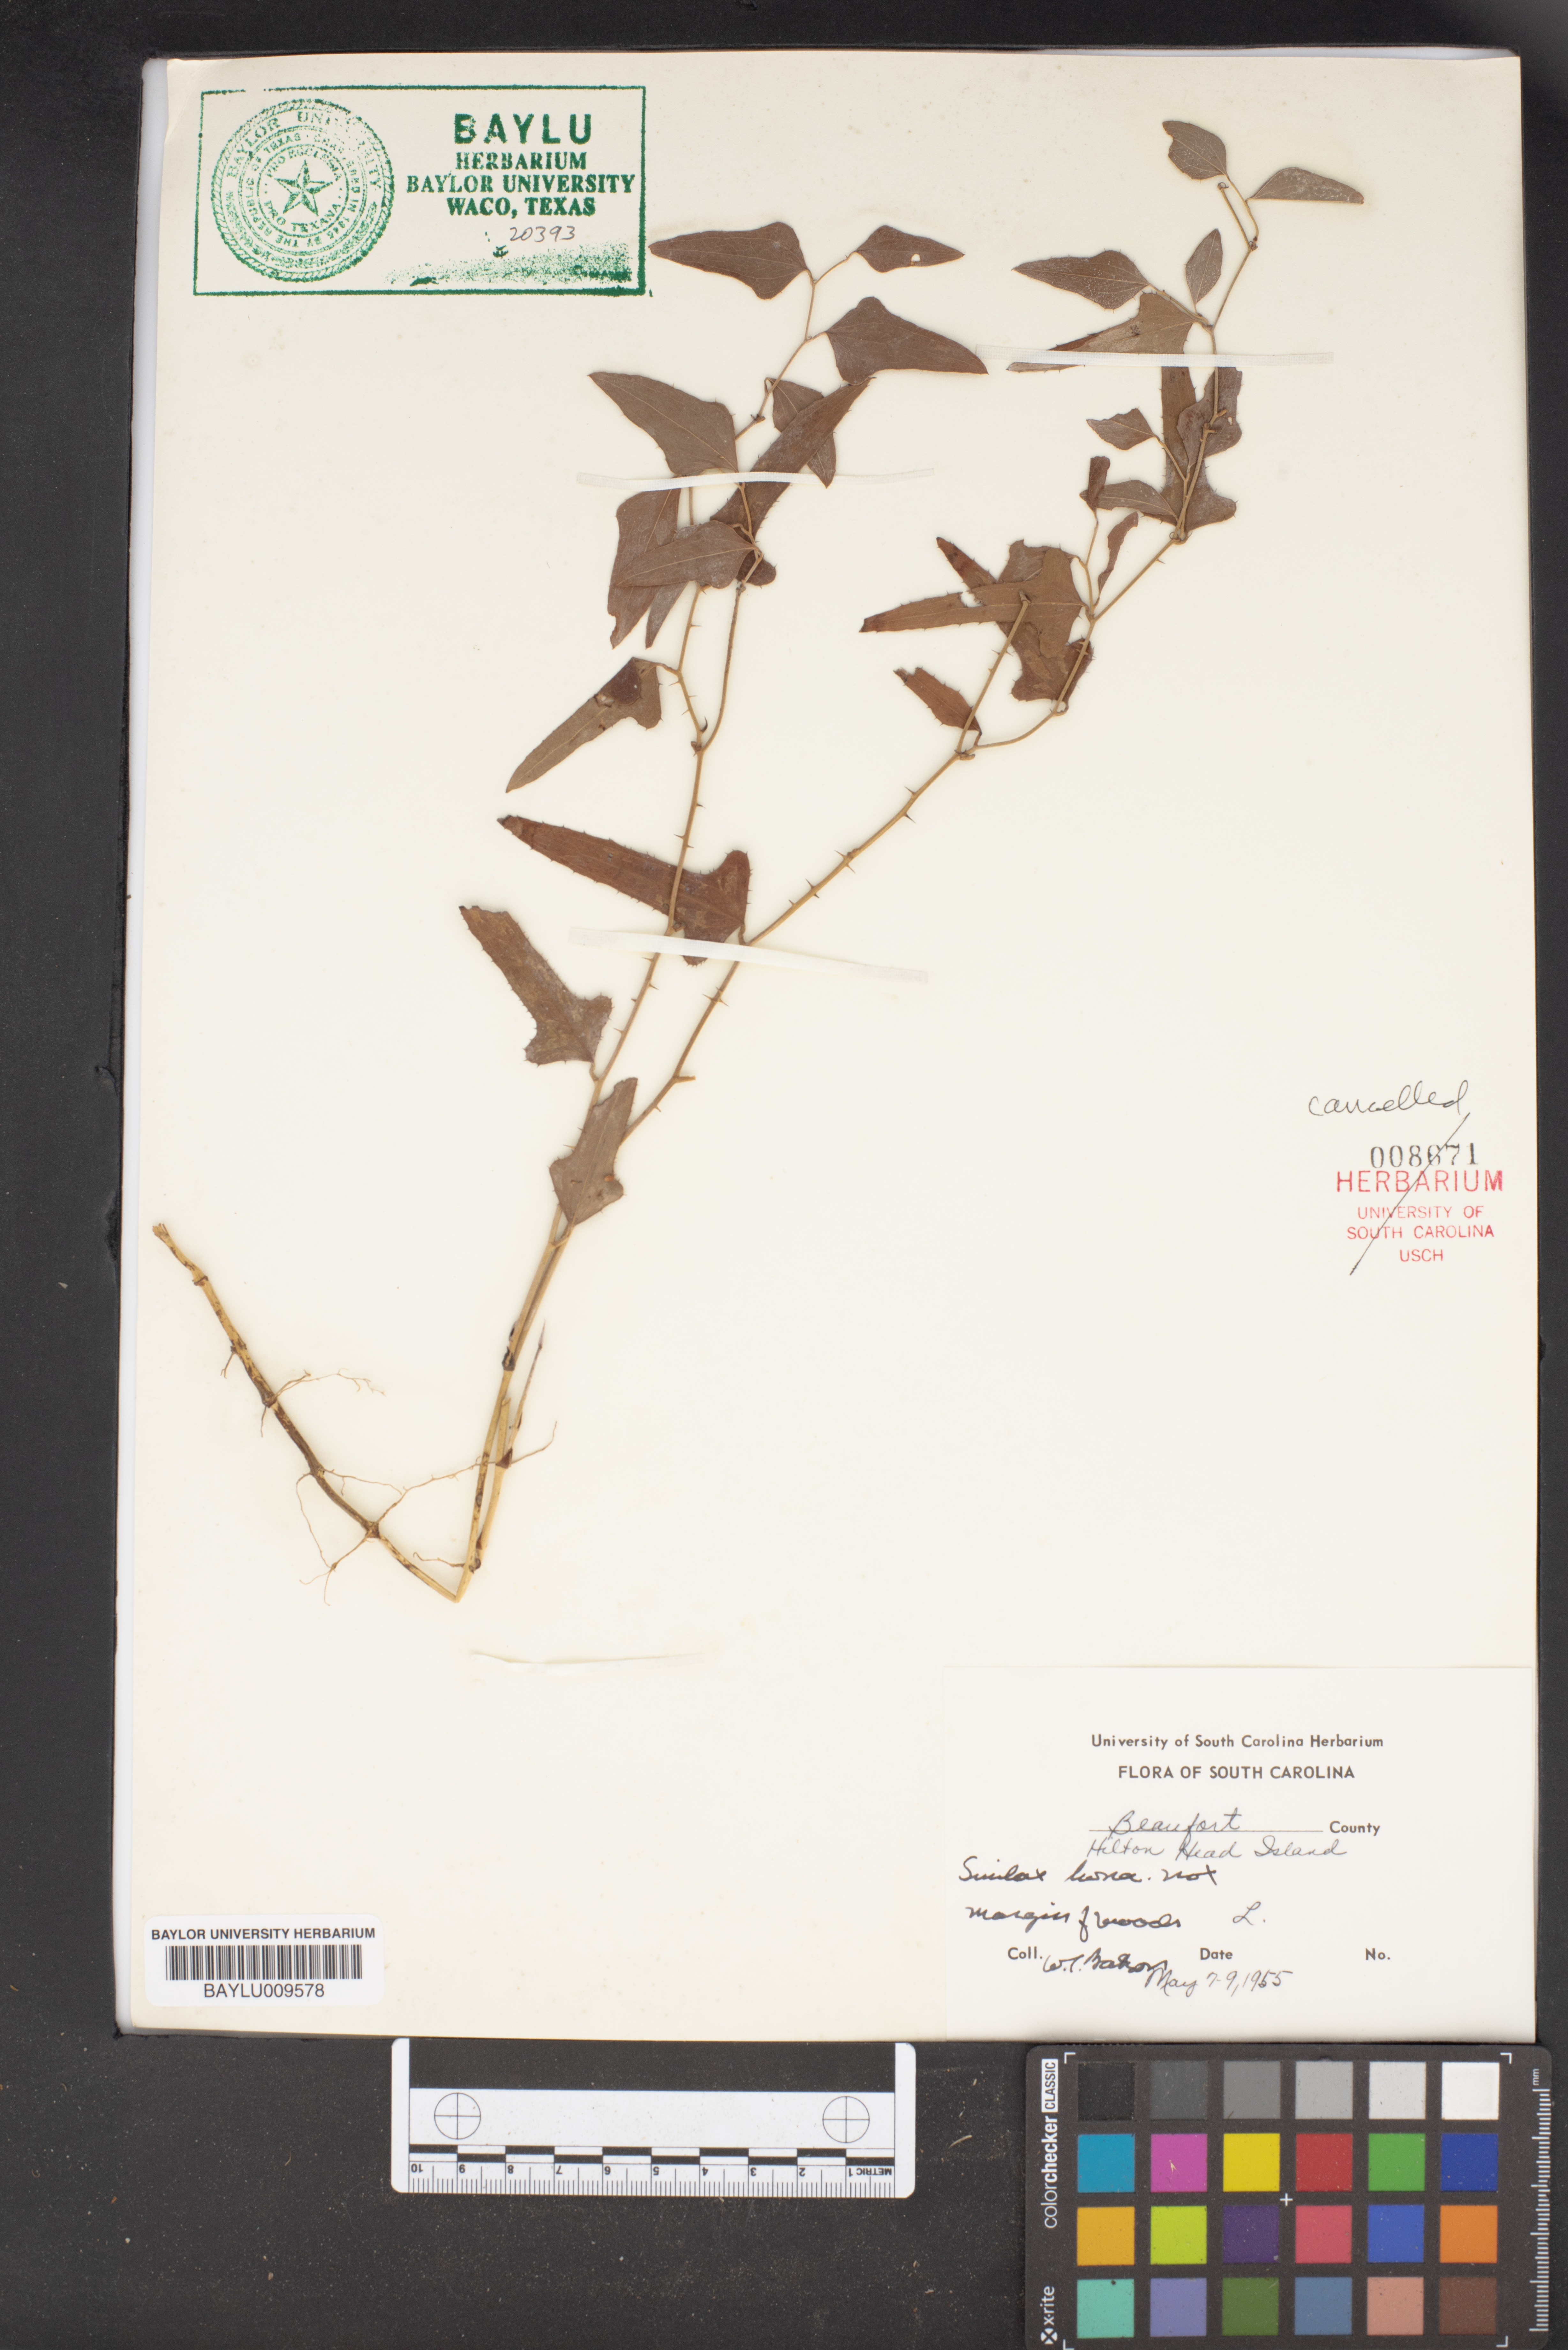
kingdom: Plantae
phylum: Tracheophyta
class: Liliopsida
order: Liliales
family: Smilacaceae
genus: Smilax
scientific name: Smilax bona-nox
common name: Catbrier
